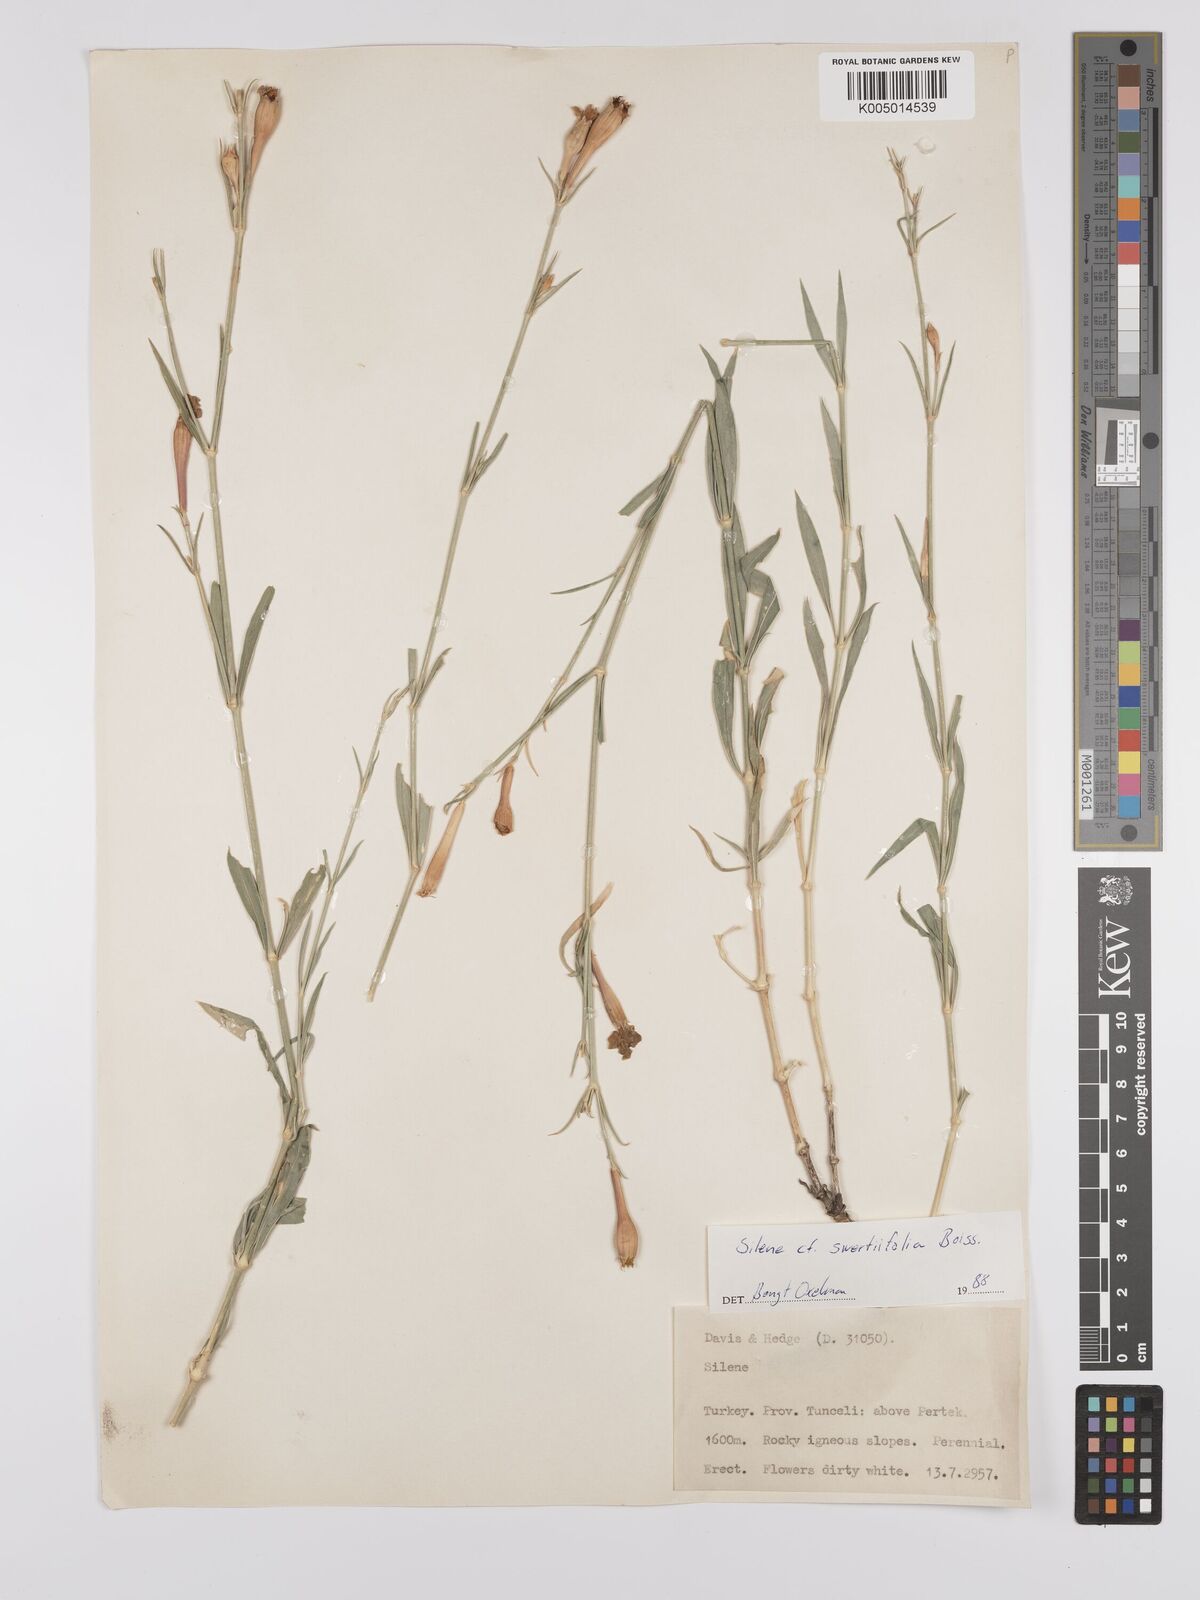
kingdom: Plantae
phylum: Tracheophyta
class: Magnoliopsida
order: Caryophyllales
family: Caryophyllaceae
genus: Silene
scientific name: Silene
